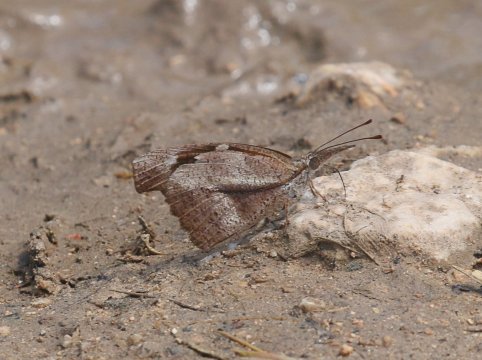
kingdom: Animalia
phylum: Arthropoda
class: Insecta
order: Lepidoptera
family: Nymphalidae
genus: Libytheana
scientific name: Libytheana carinenta
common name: American Snout
